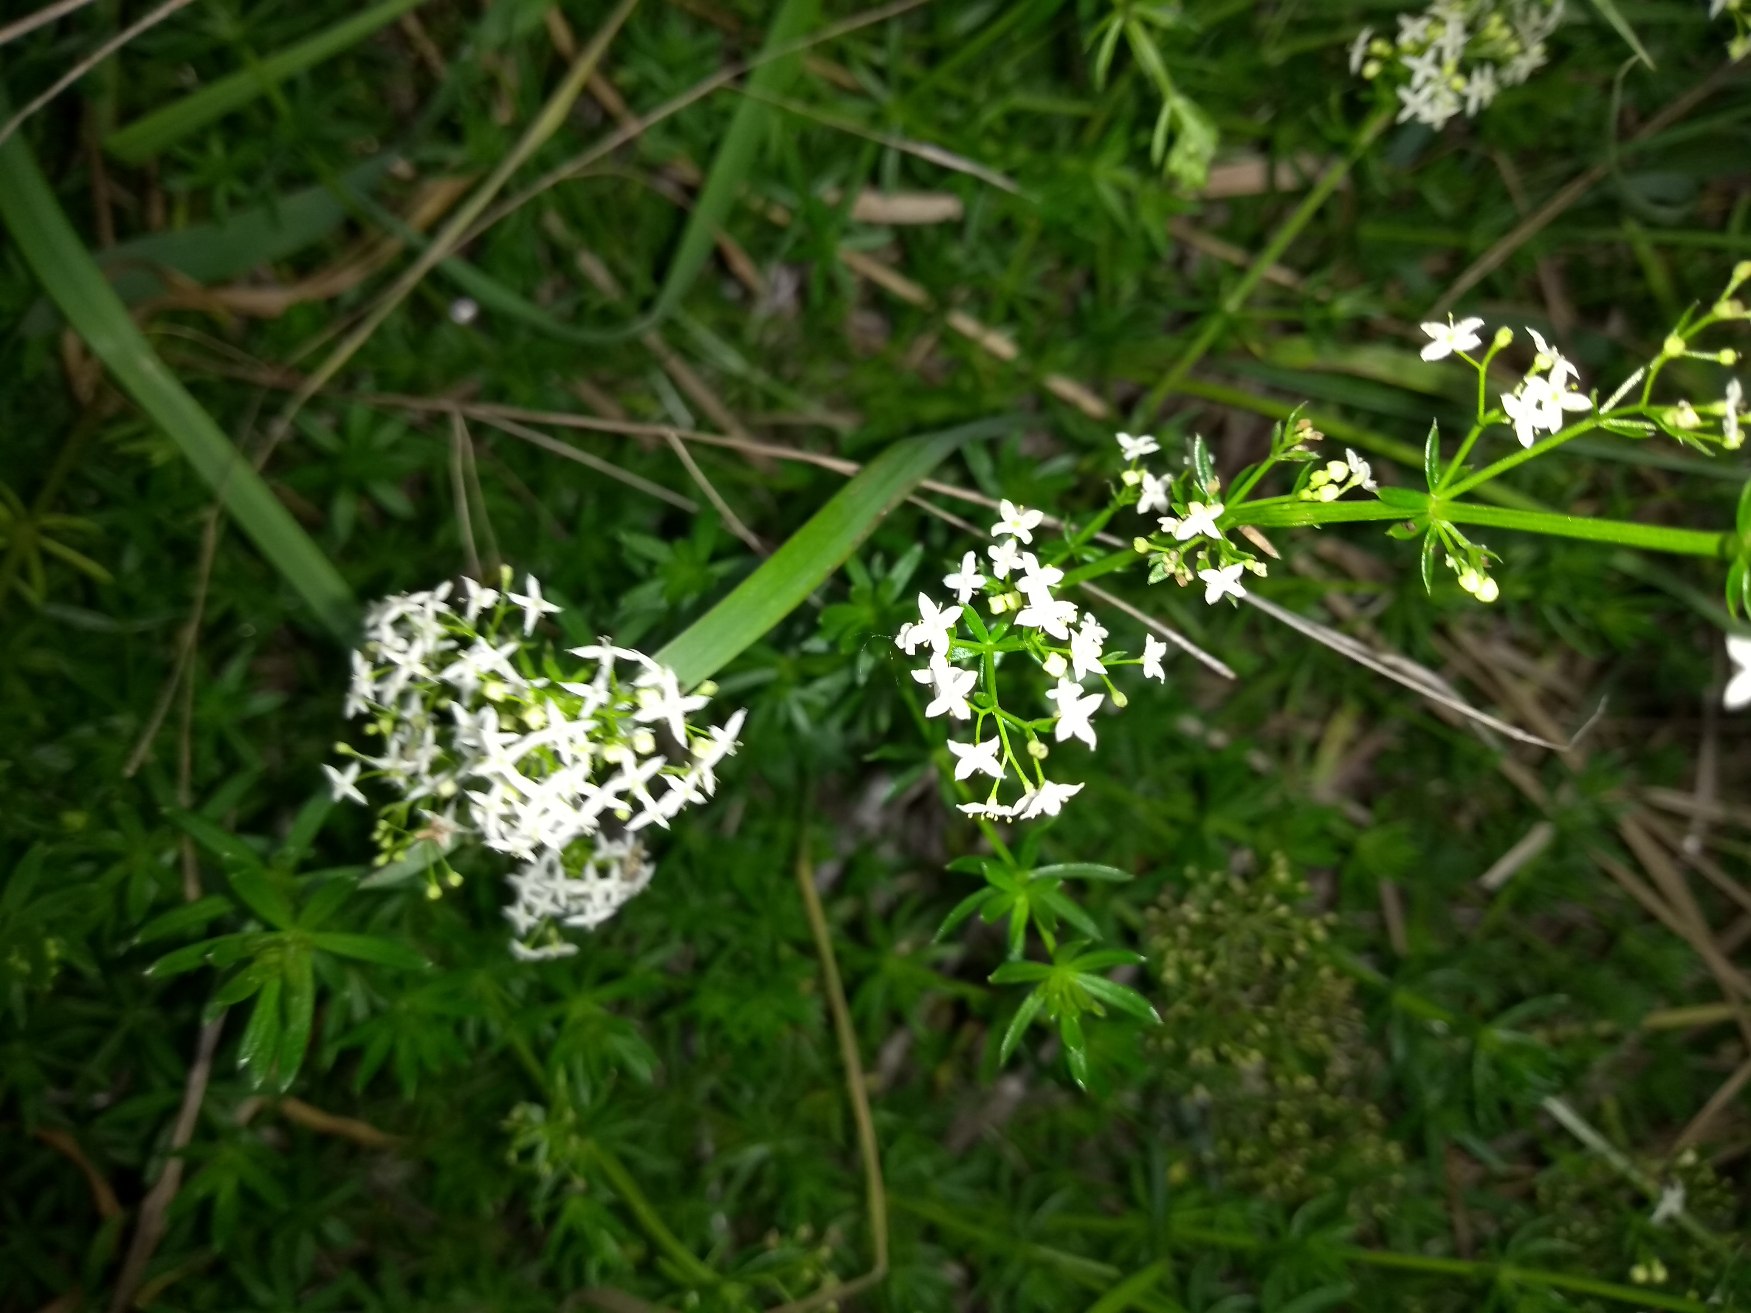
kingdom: Plantae
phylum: Tracheophyta
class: Magnoliopsida
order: Gentianales
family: Rubiaceae
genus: Galium
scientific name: Galium mollugo
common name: Hvid snerre
